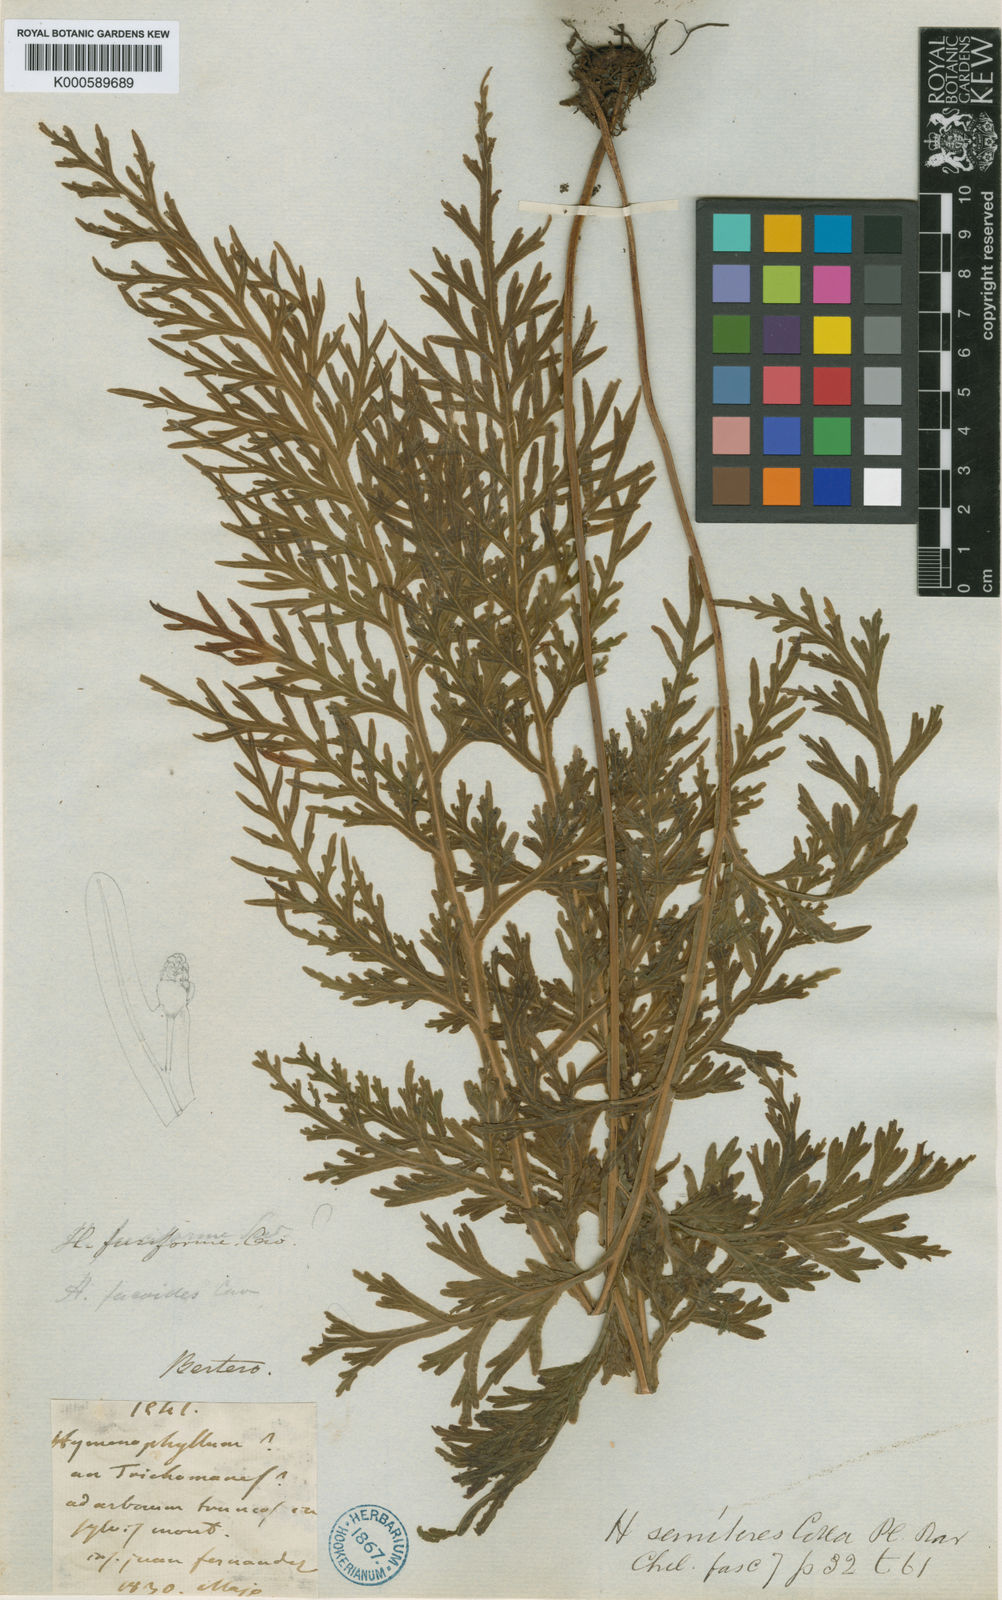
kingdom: Plantae
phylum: Tracheophyta
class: Polypodiopsida
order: Hymenophyllales
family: Hymenophyllaceae
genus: Hymenophyllum
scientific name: Hymenophyllum fuciforme
